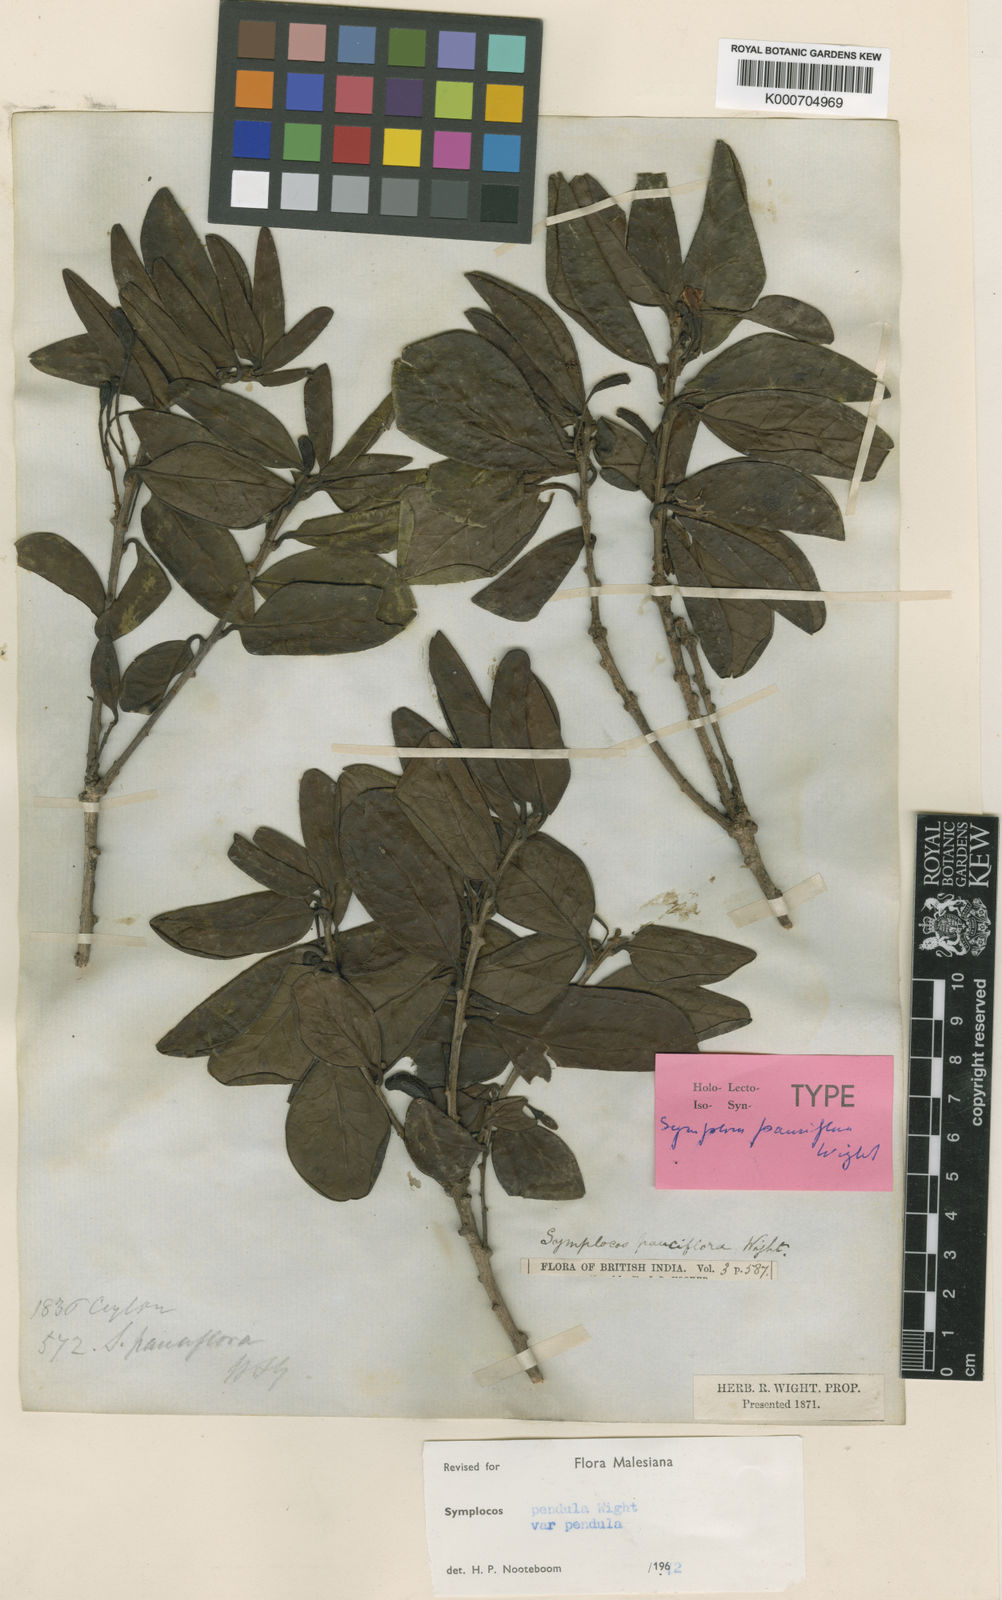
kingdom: Plantae
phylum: Tracheophyta
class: Magnoliopsida
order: Ericales
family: Symplocaceae
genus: Symplocos
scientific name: Symplocos pendula
